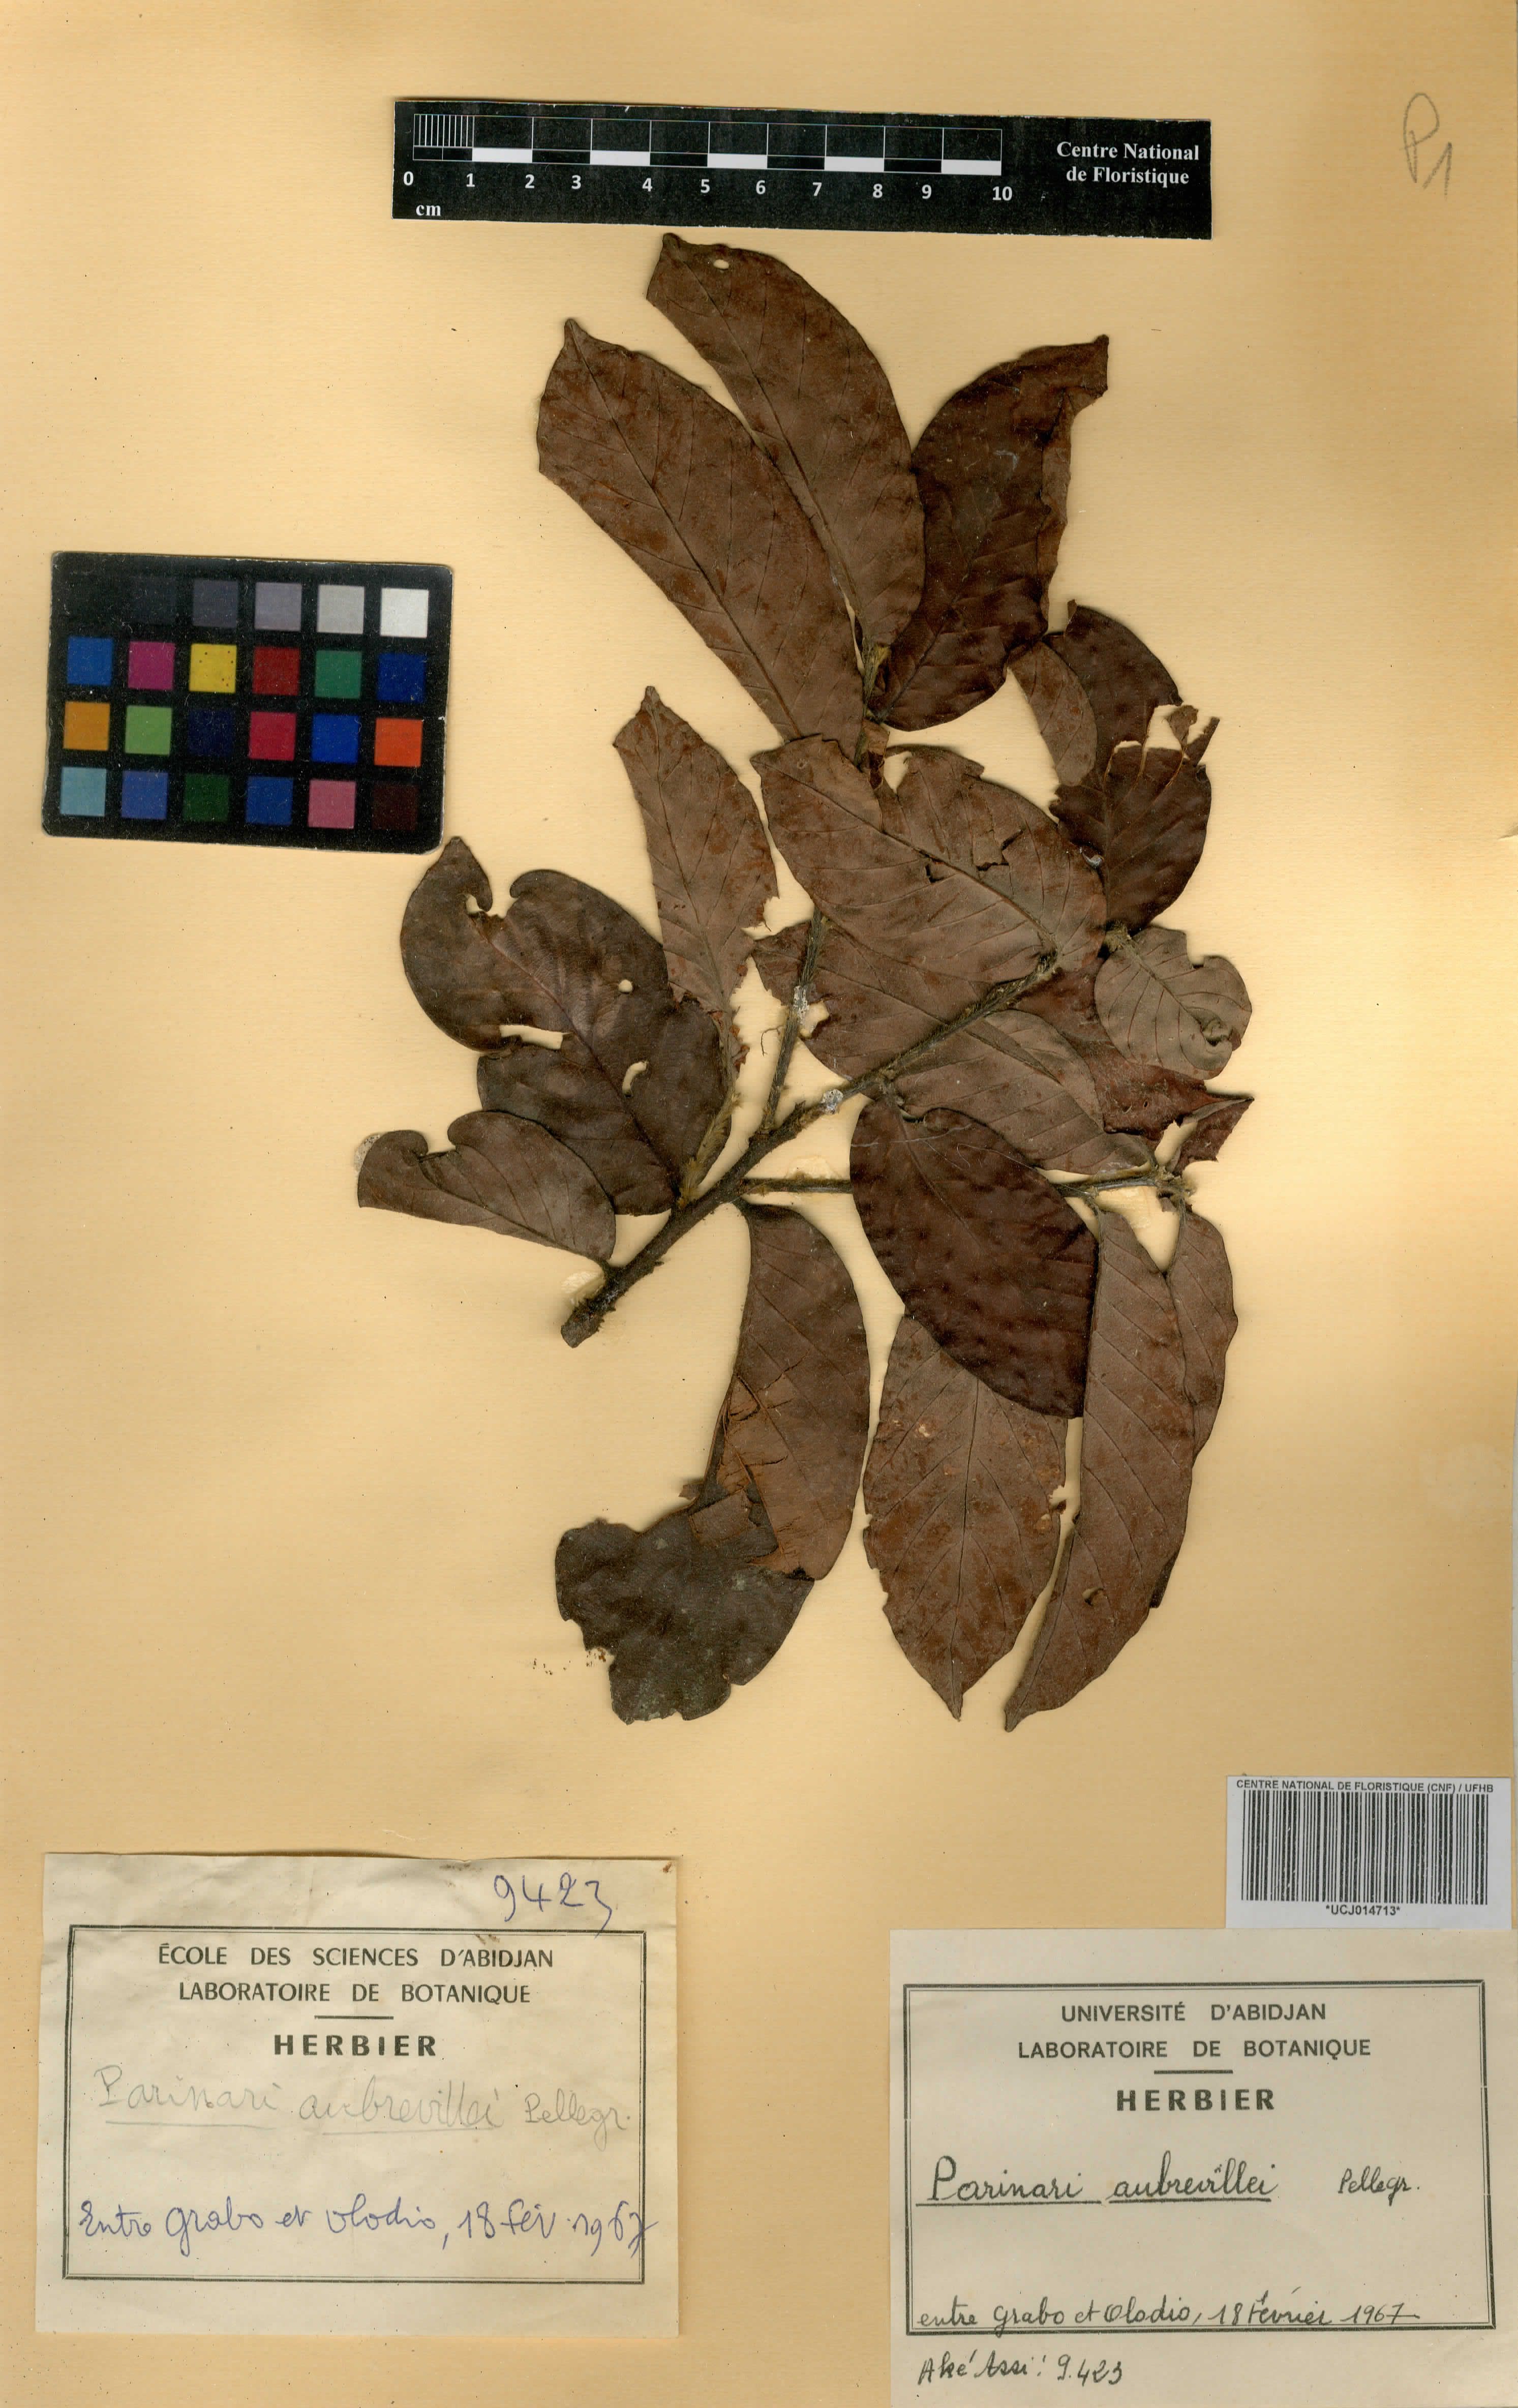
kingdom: Plantae
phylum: Tracheophyta
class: Magnoliopsida
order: Malpighiales
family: Chrysobalanaceae
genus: Maranthes
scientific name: Maranthes aubrevillei
